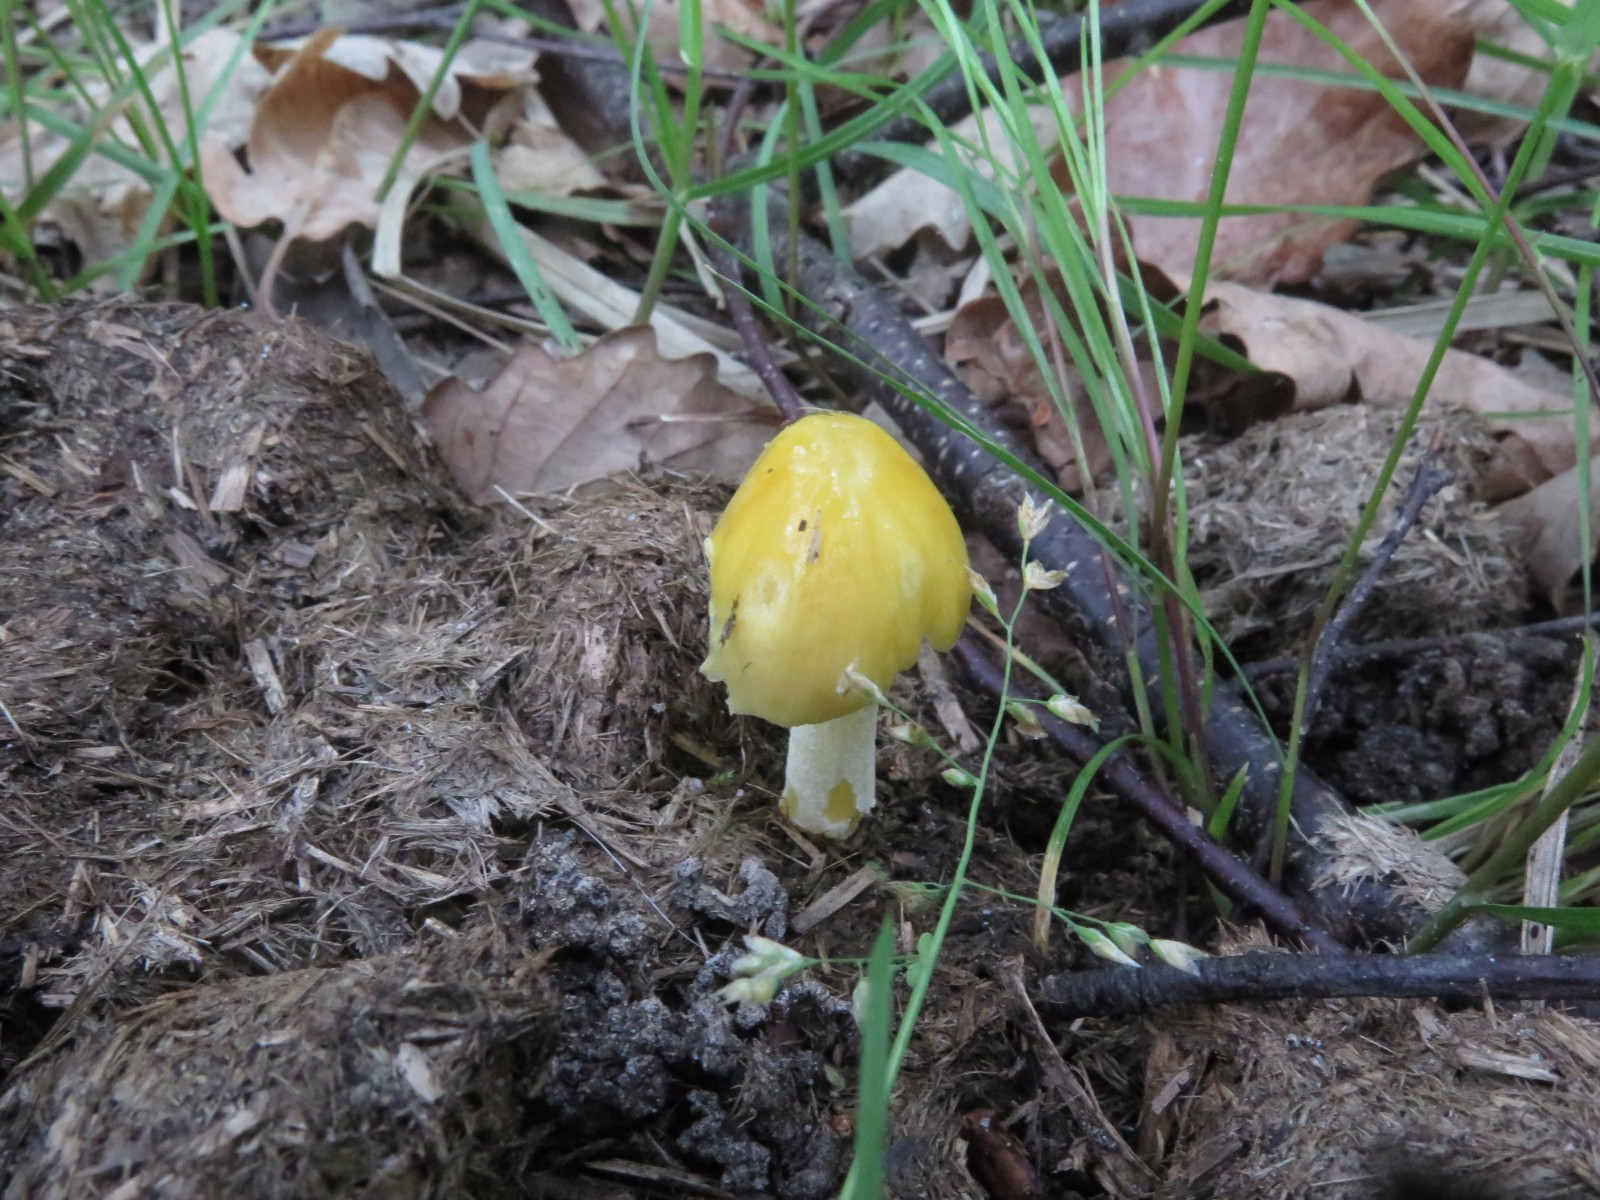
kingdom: Fungi
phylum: Basidiomycota
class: Agaricomycetes
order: Agaricales
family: Bolbitiaceae
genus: Bolbitius
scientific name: Bolbitius titubans
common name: almindelig gulhat
